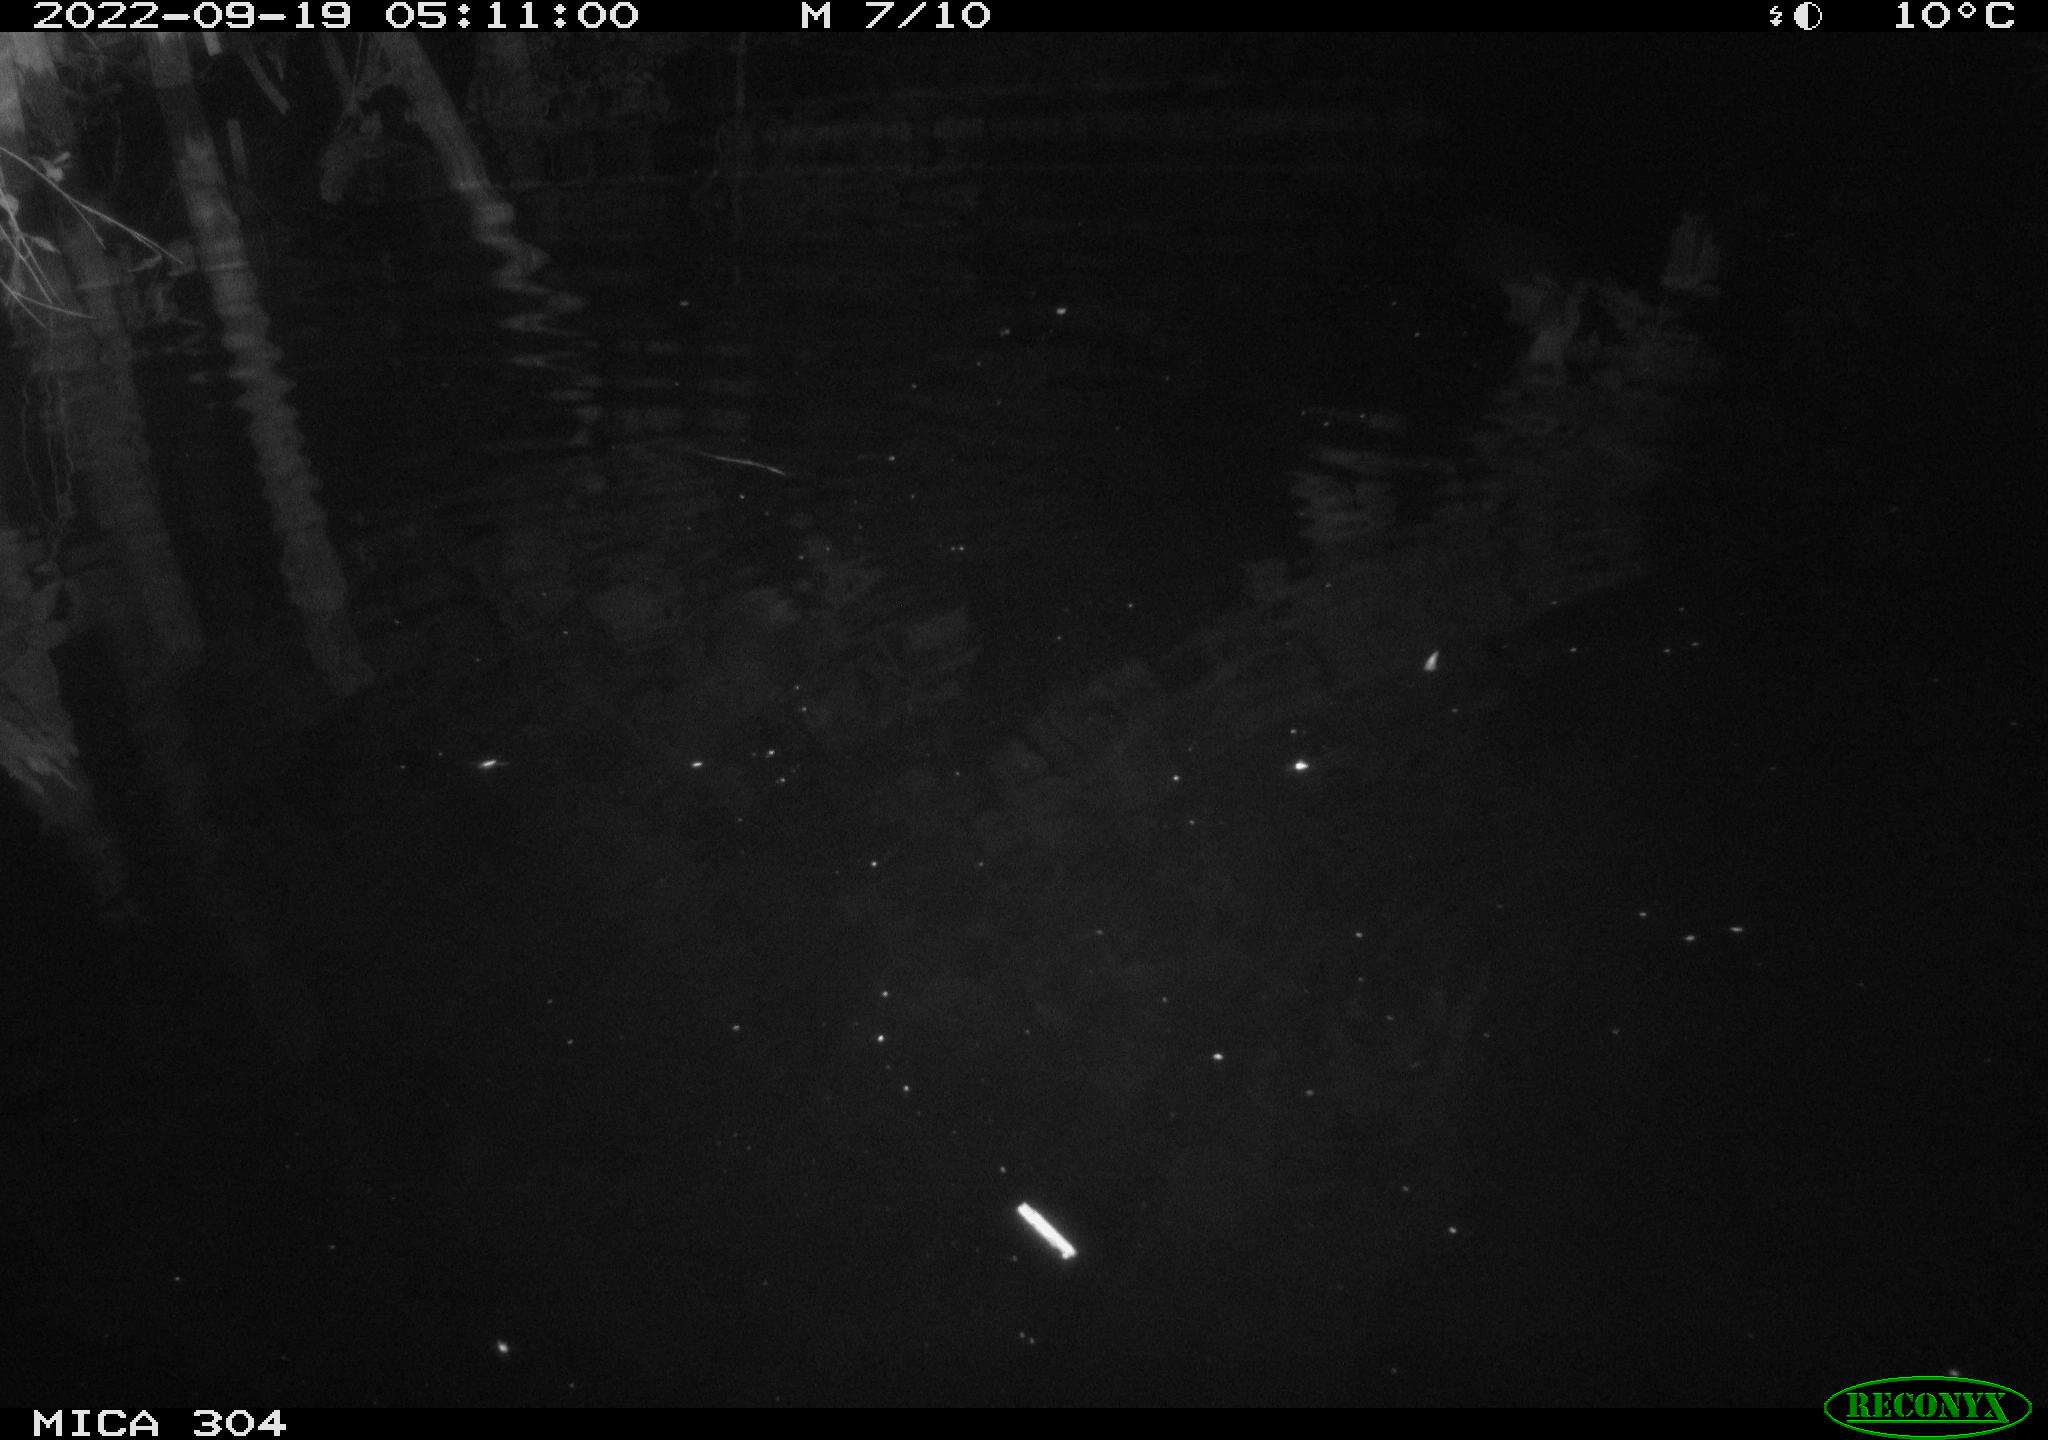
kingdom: Animalia
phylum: Chordata
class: Mammalia
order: Rodentia
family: Muridae
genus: Rattus
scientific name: Rattus norvegicus
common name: Brown rat
